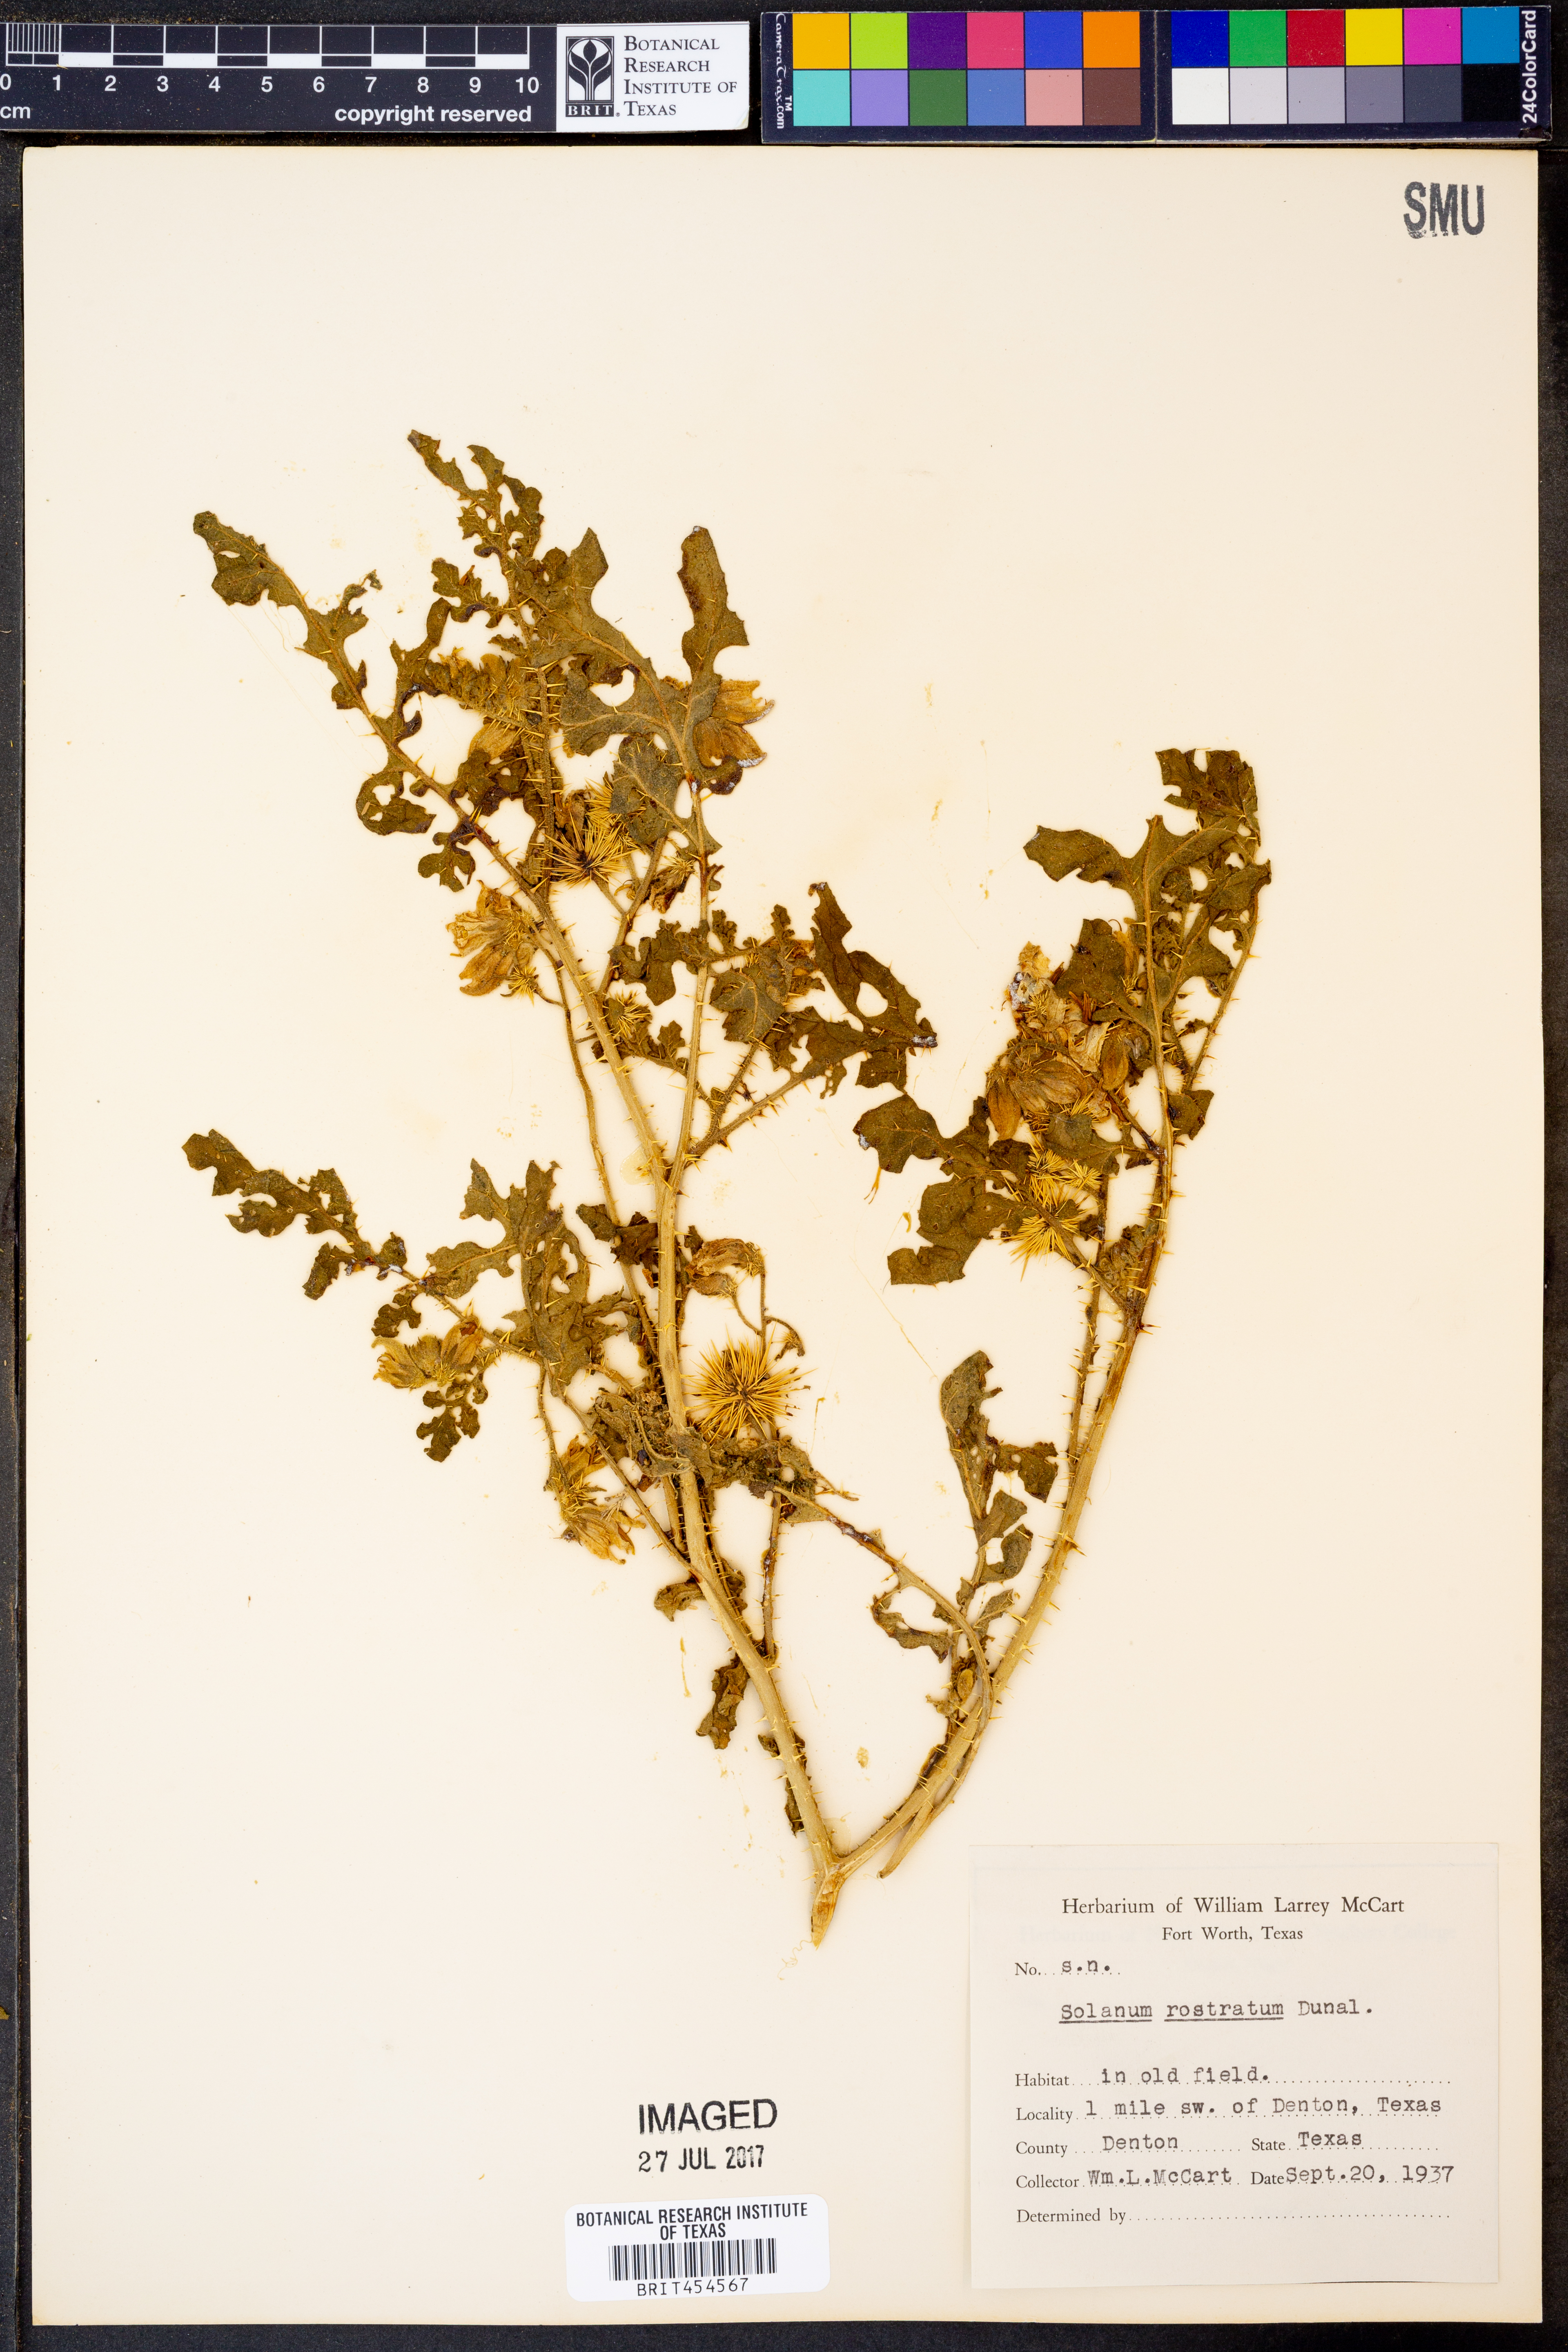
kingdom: Plantae
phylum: Tracheophyta
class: Magnoliopsida
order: Solanales
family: Solanaceae
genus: Solanum
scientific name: Solanum angustifolium
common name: Buffalobur nightshade
